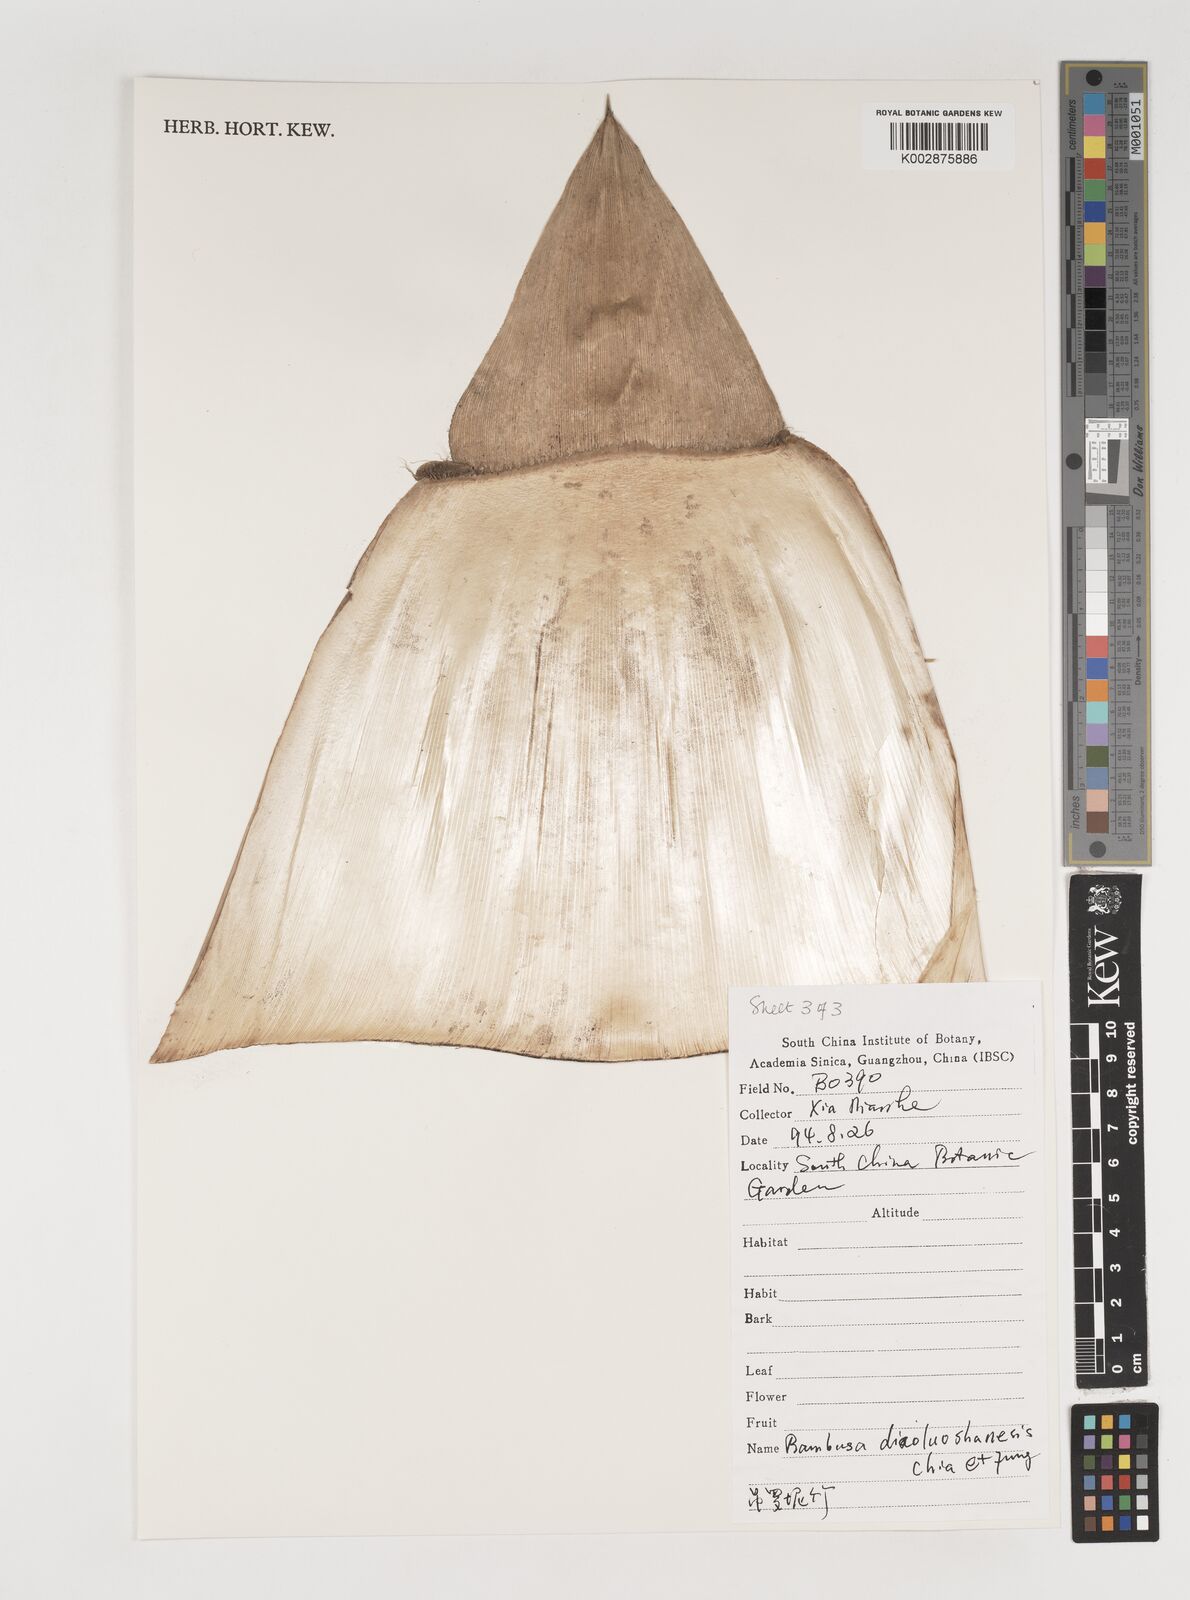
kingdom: Plantae
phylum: Tracheophyta
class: Liliopsida
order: Poales
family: Poaceae
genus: Bambusa
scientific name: Bambusa diaoluoshanensis
